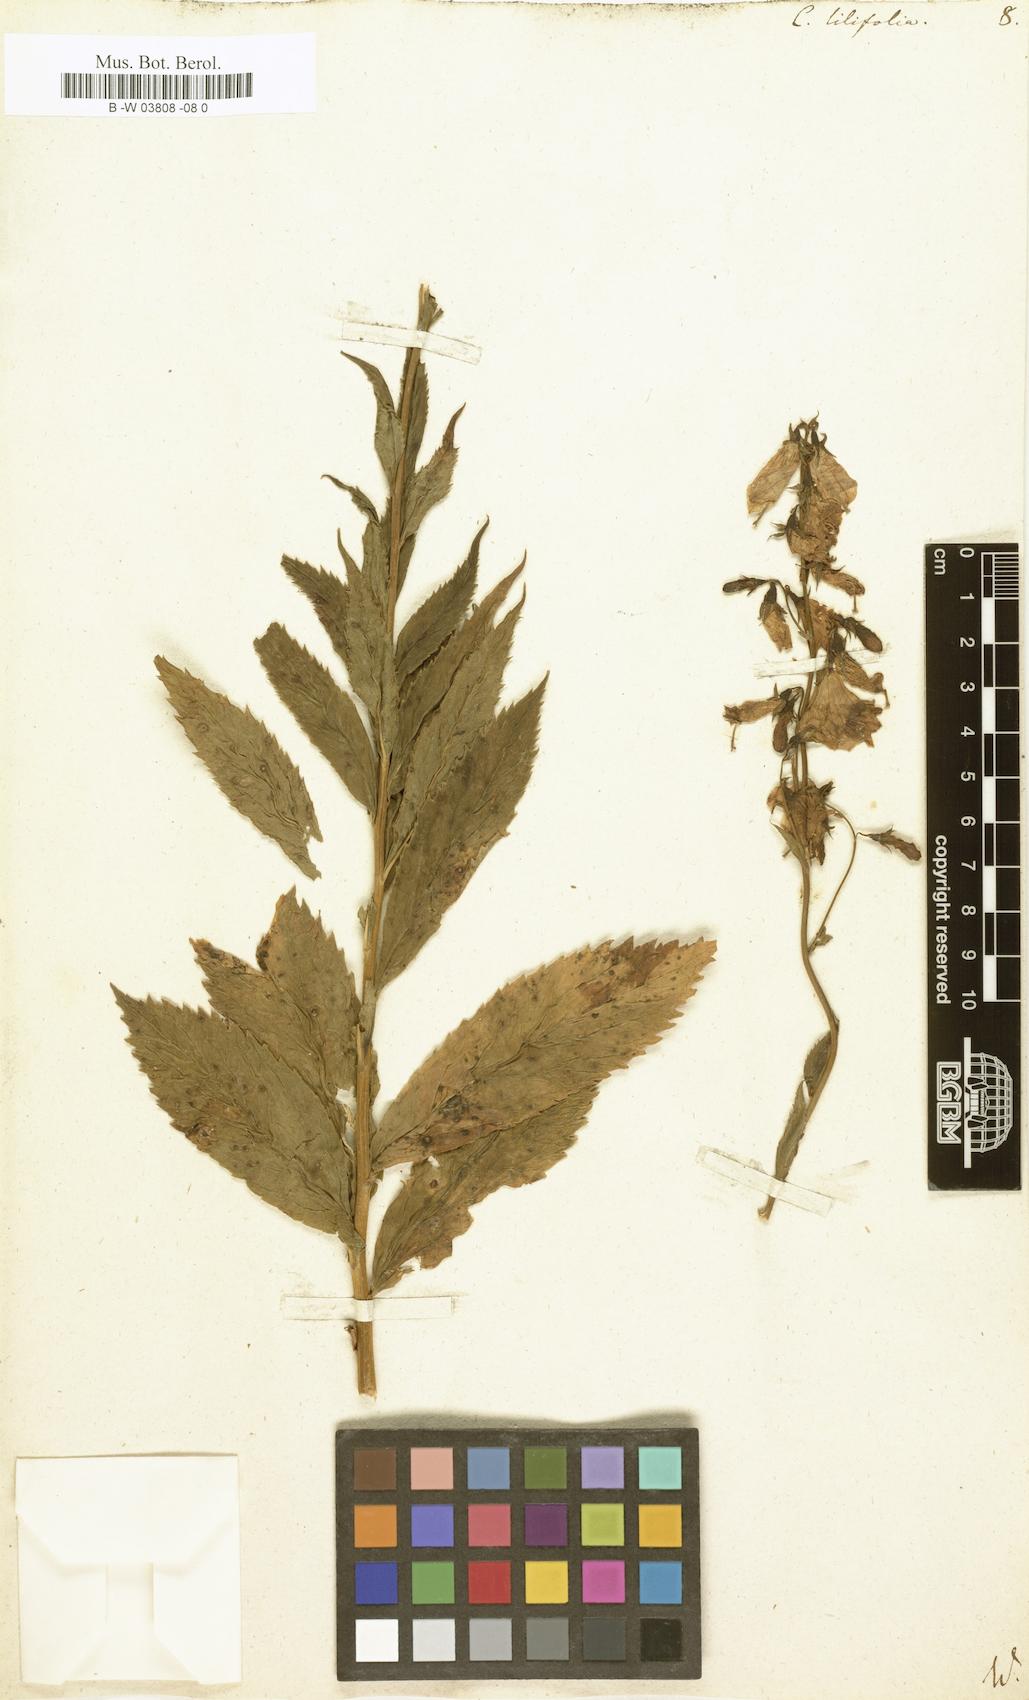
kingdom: Plantae
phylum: Tracheophyta
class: Magnoliopsida
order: Asterales
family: Campanulaceae
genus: Campanula
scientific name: Campanula lilifolia
